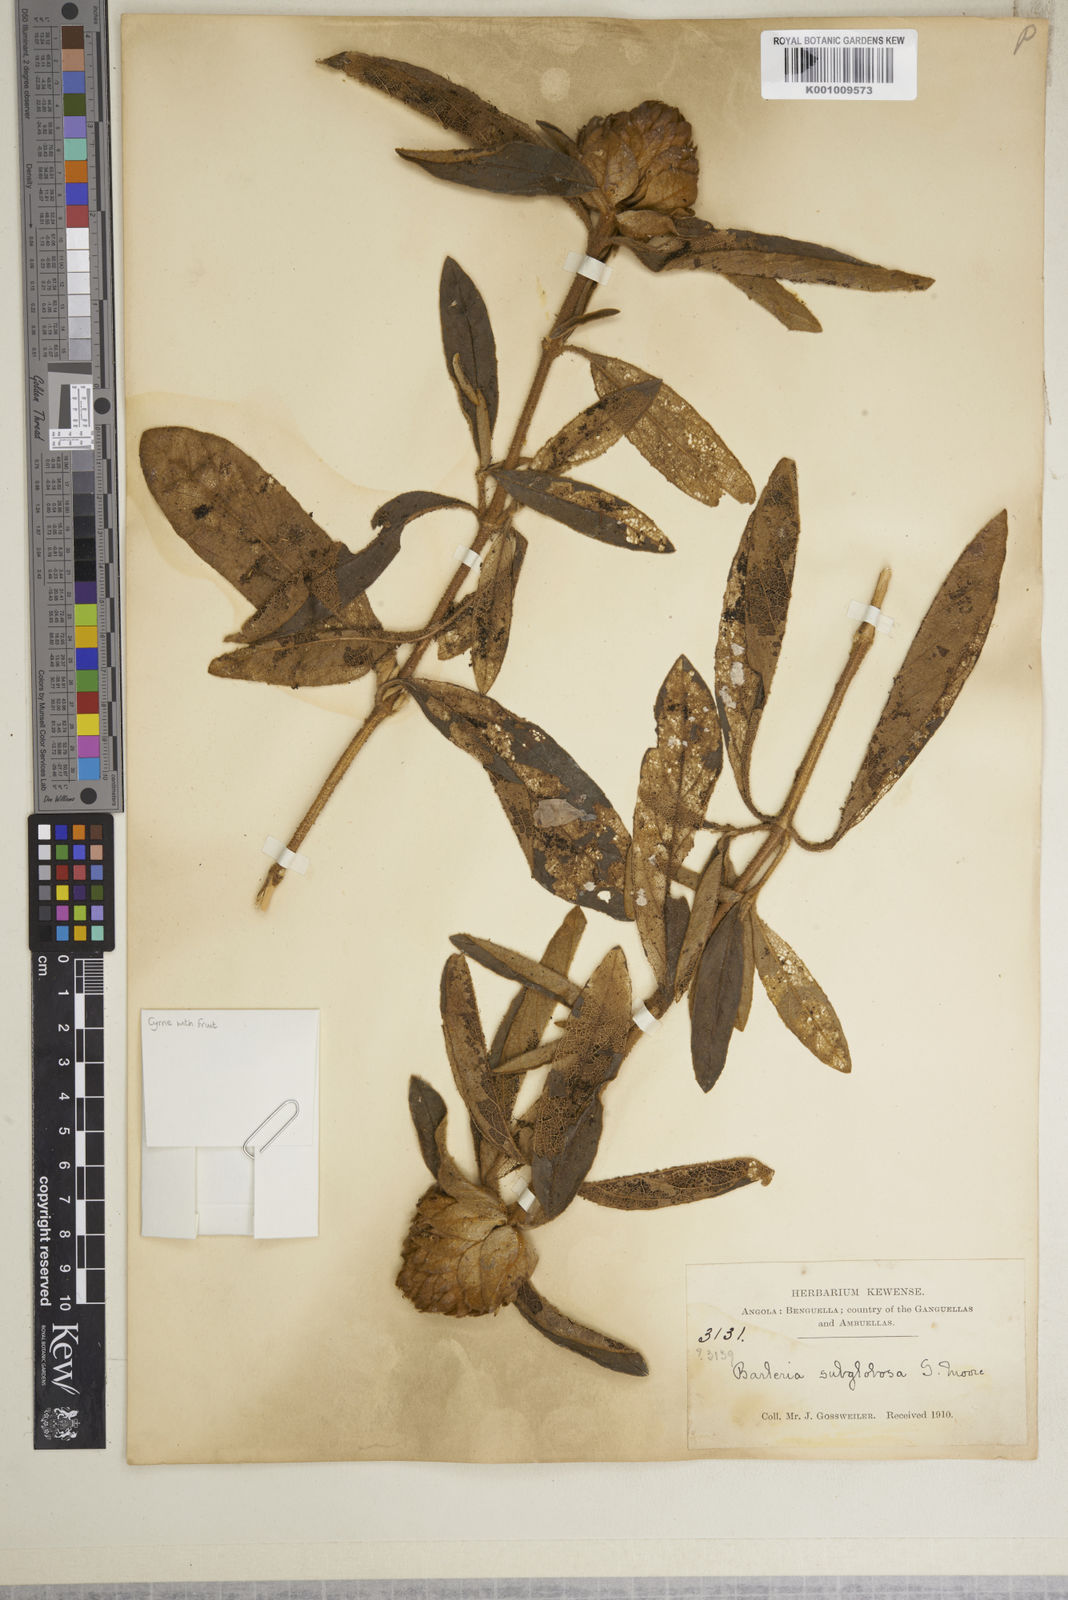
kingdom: Plantae
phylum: Tracheophyta
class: Magnoliopsida
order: Lamiales
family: Acanthaceae
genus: Barleria
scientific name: Barleria subglobosa
